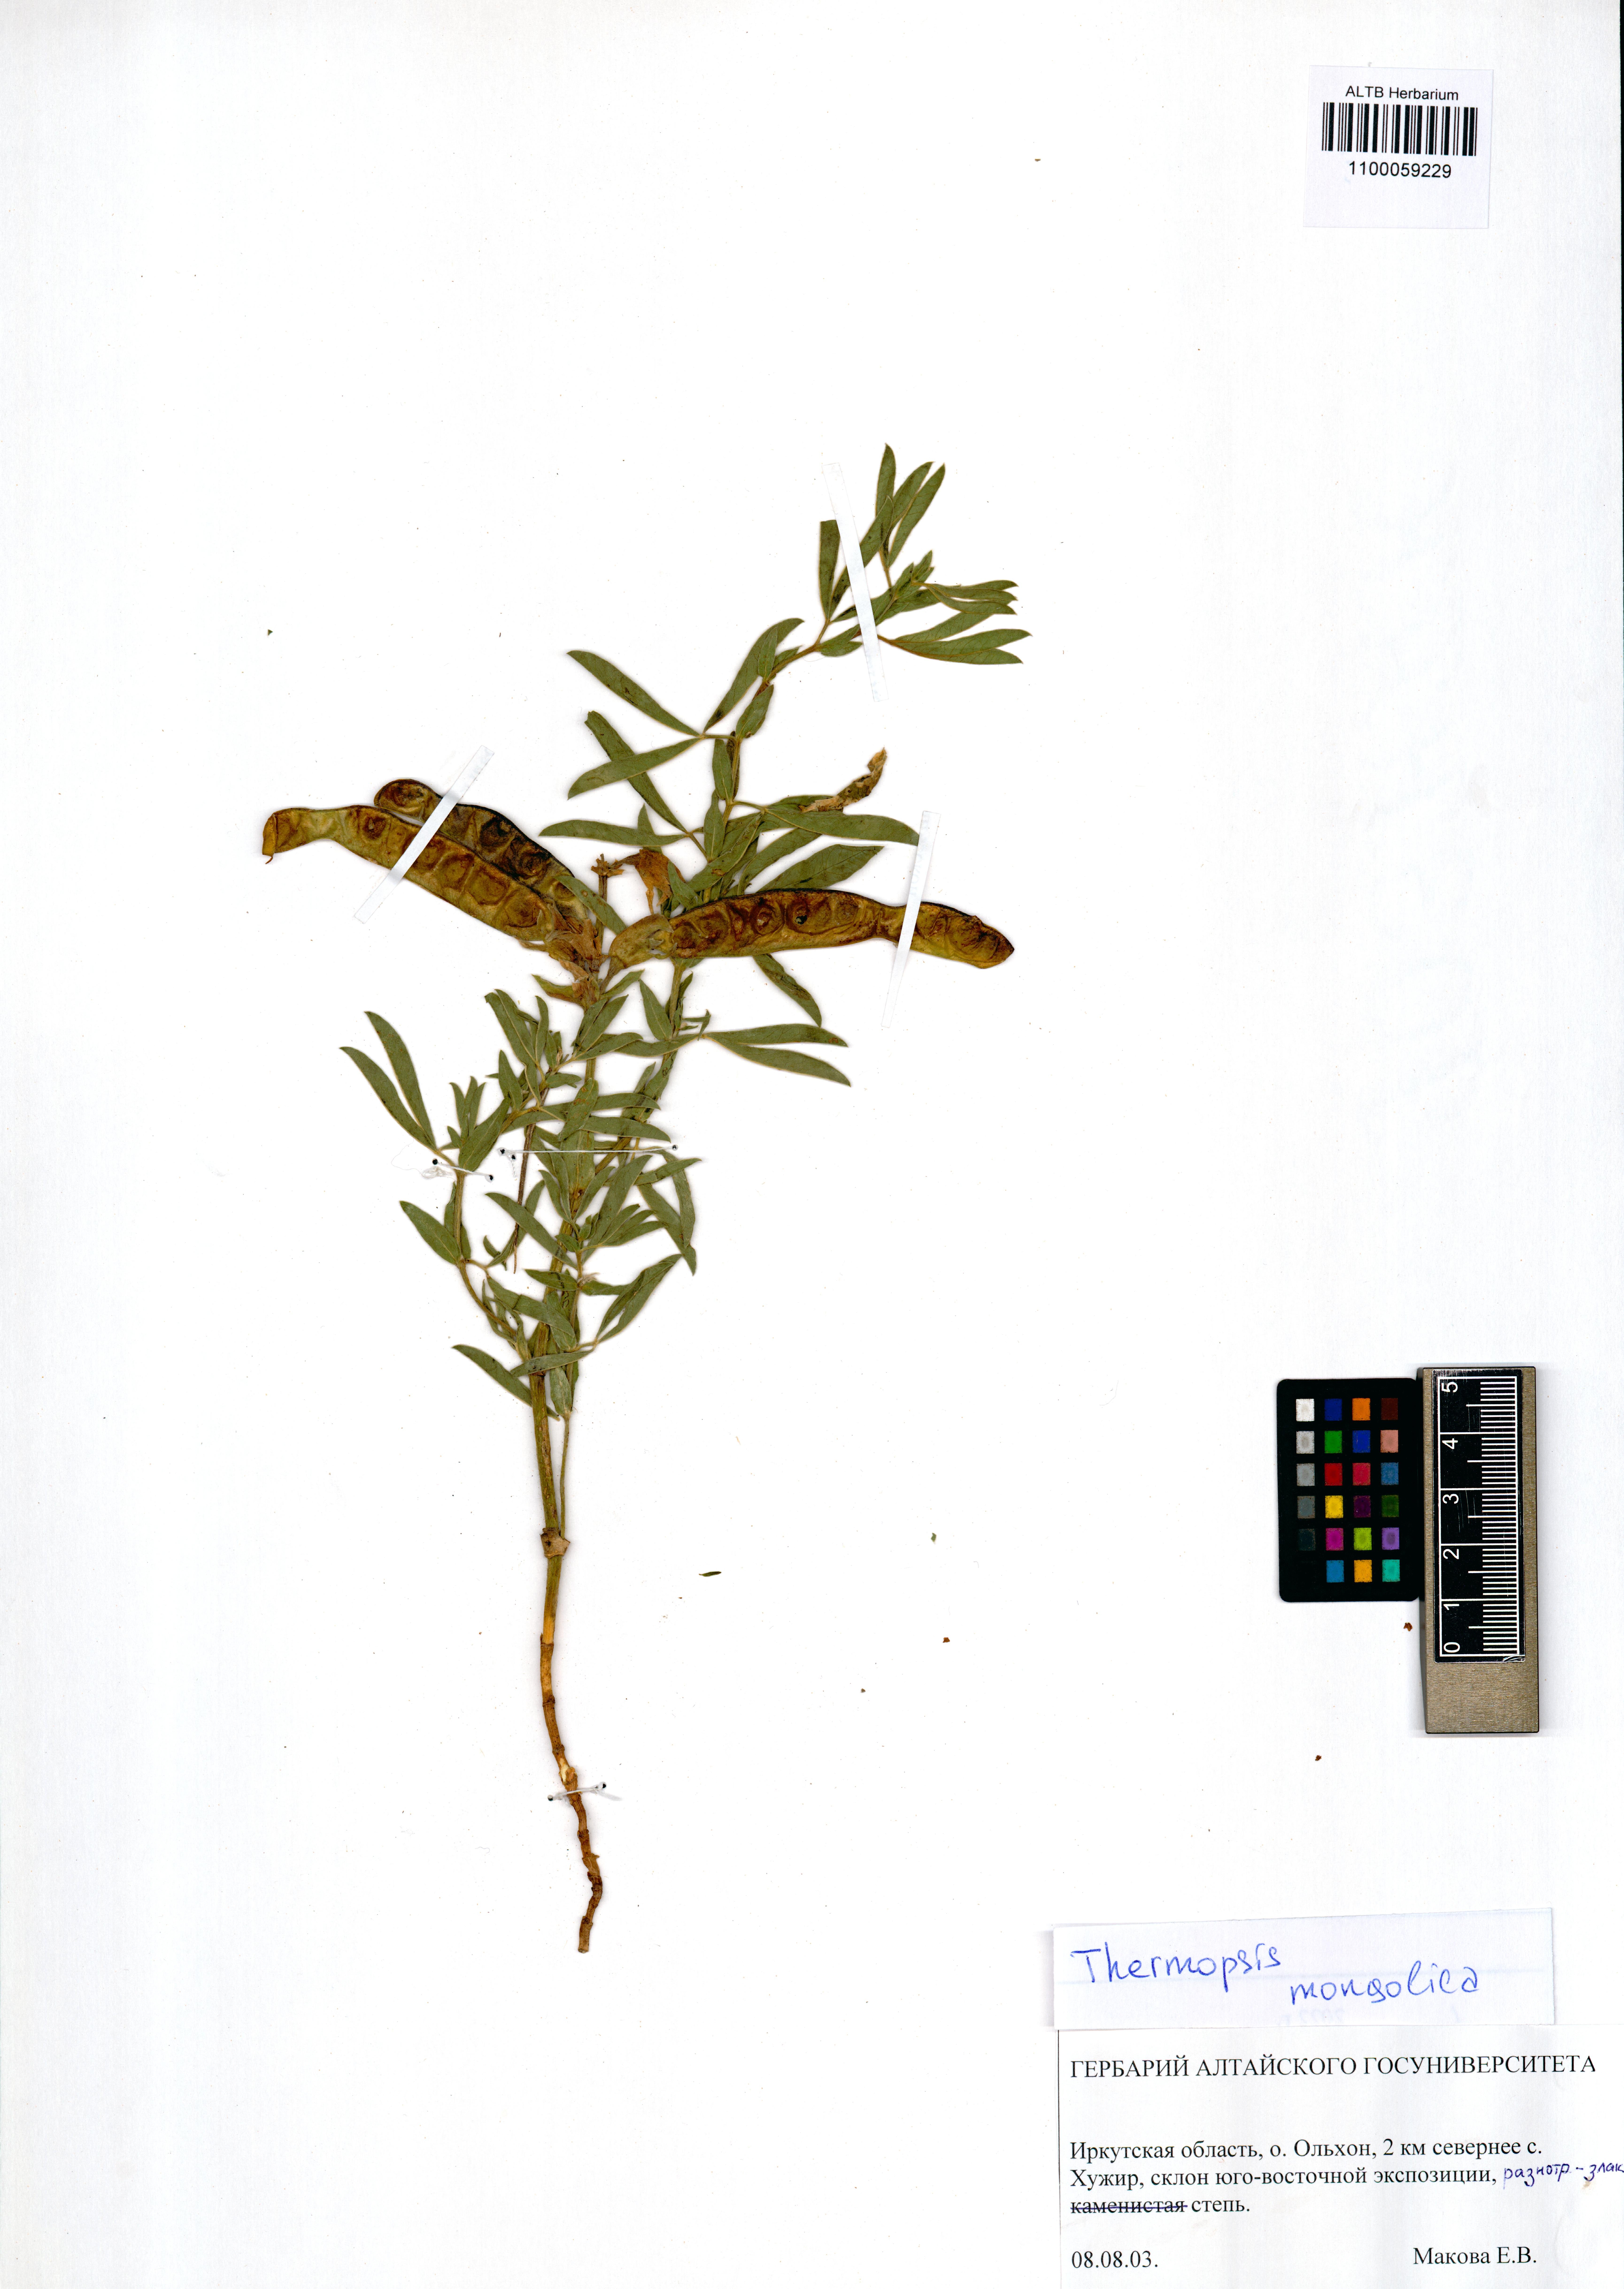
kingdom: Plantae
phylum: Tracheophyta
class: Magnoliopsida
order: Fabales
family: Fabaceae
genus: Thermopsis
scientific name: Thermopsis mongolica
